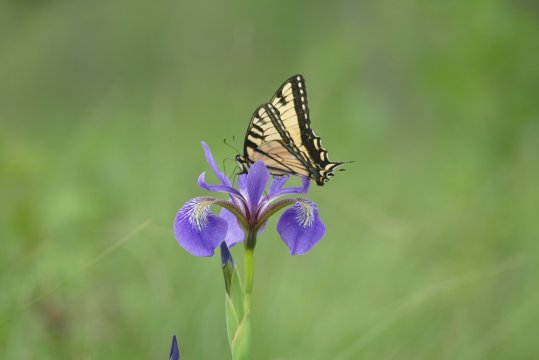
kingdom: Animalia
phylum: Arthropoda
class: Insecta
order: Lepidoptera
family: Papilionidae
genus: Pterourus
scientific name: Pterourus canadensis
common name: Canadian Tiger Swallowtail
